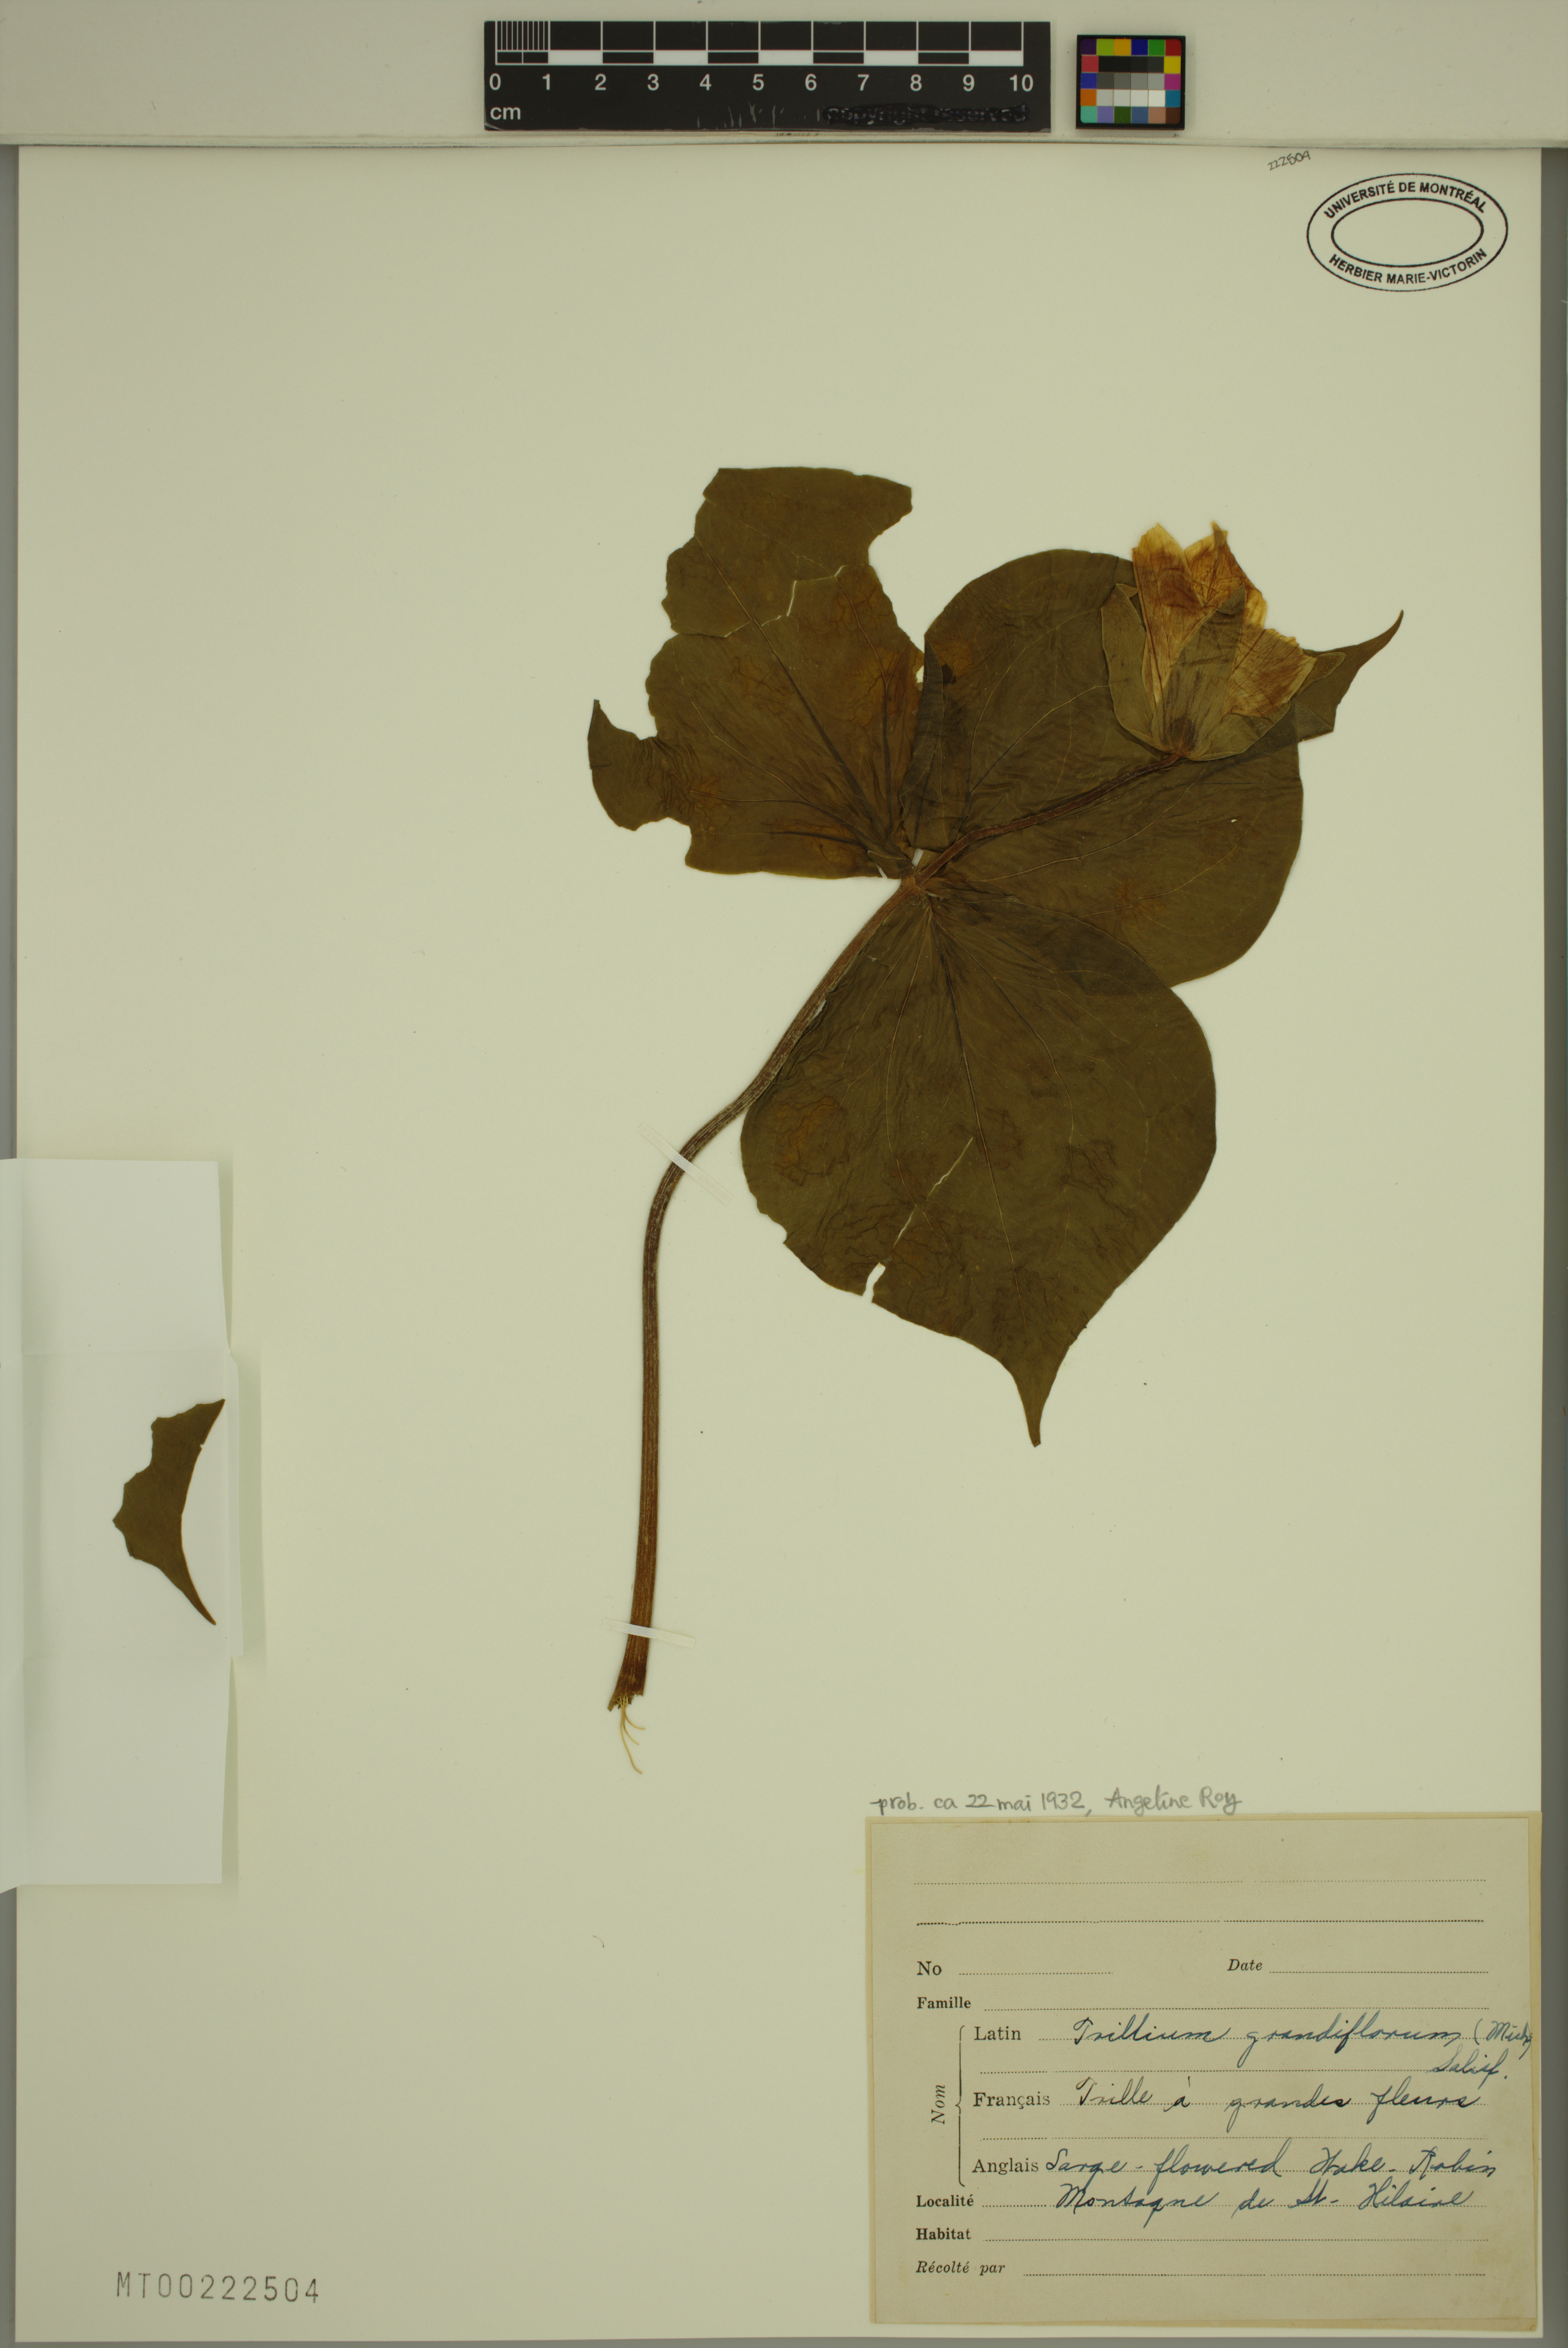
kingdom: Plantae
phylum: Tracheophyta
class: Liliopsida
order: Liliales
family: Melanthiaceae
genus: Trillium
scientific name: Trillium grandiflorum
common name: Great white trillium
